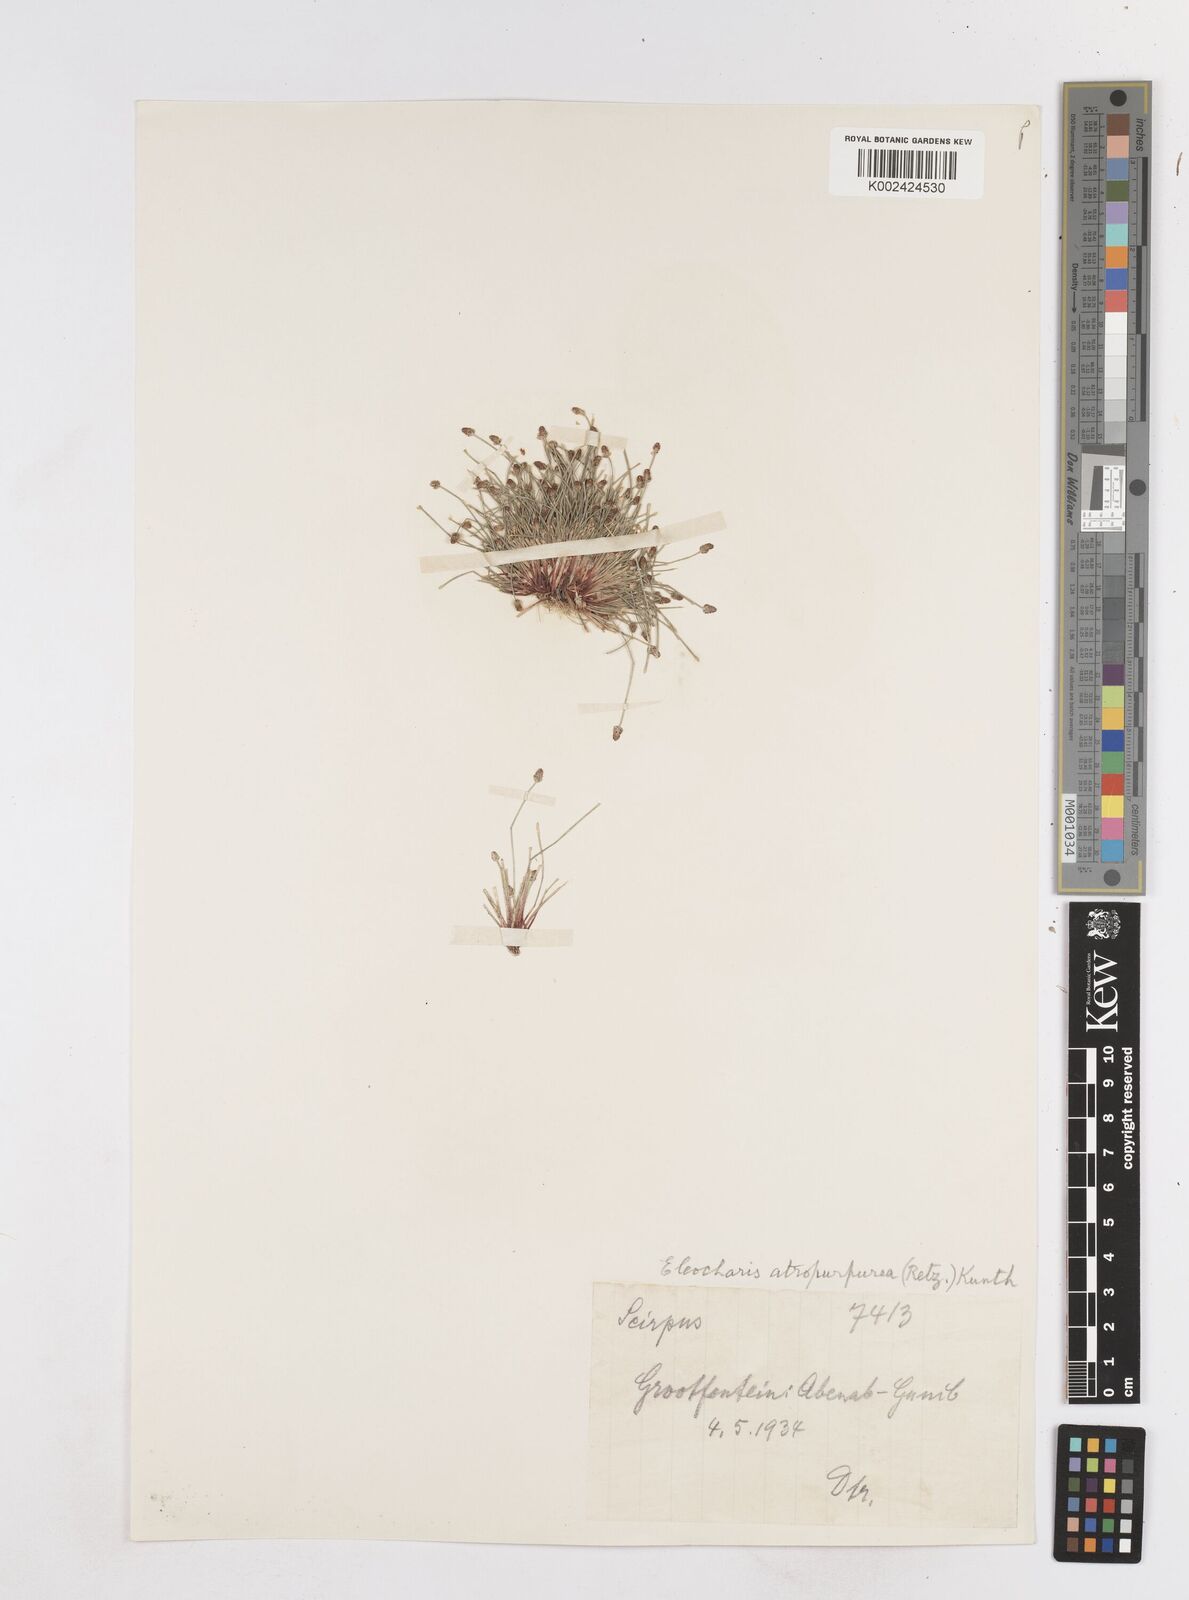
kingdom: Plantae
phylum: Tracheophyta
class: Liliopsida
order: Poales
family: Cyperaceae
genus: Eleocharis
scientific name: Eleocharis atropurpurea
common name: Purple spikerush
